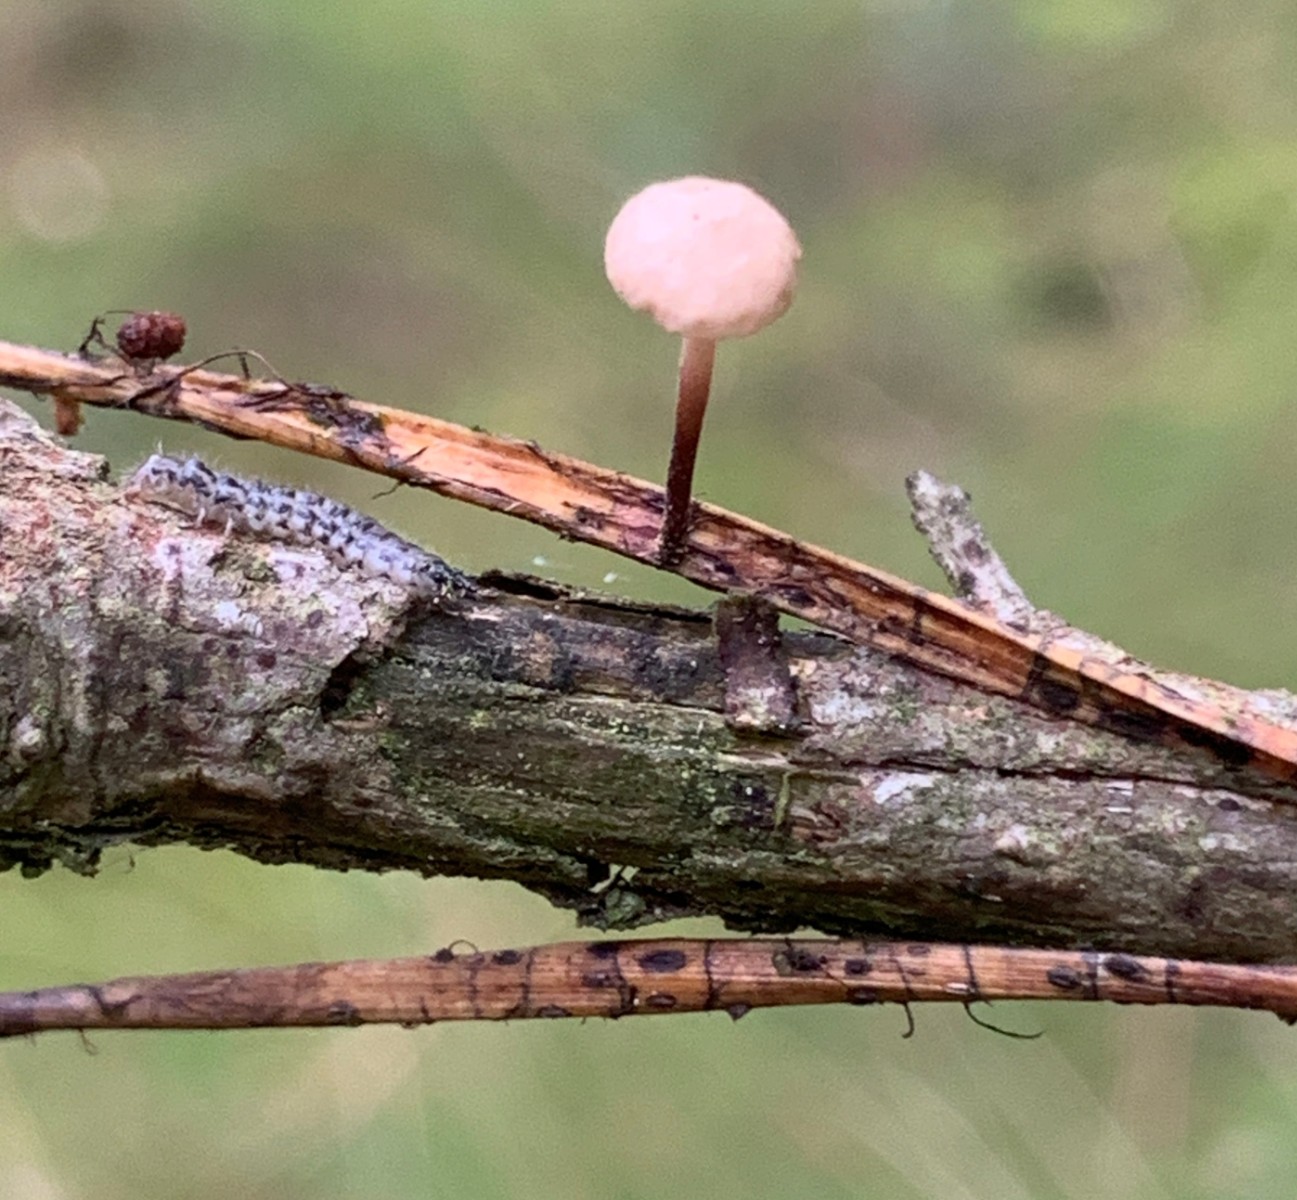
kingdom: Fungi
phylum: Basidiomycota
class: Agaricomycetes
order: Agaricales
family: Omphalotaceae
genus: Paragymnopus
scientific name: Paragymnopus perforans
